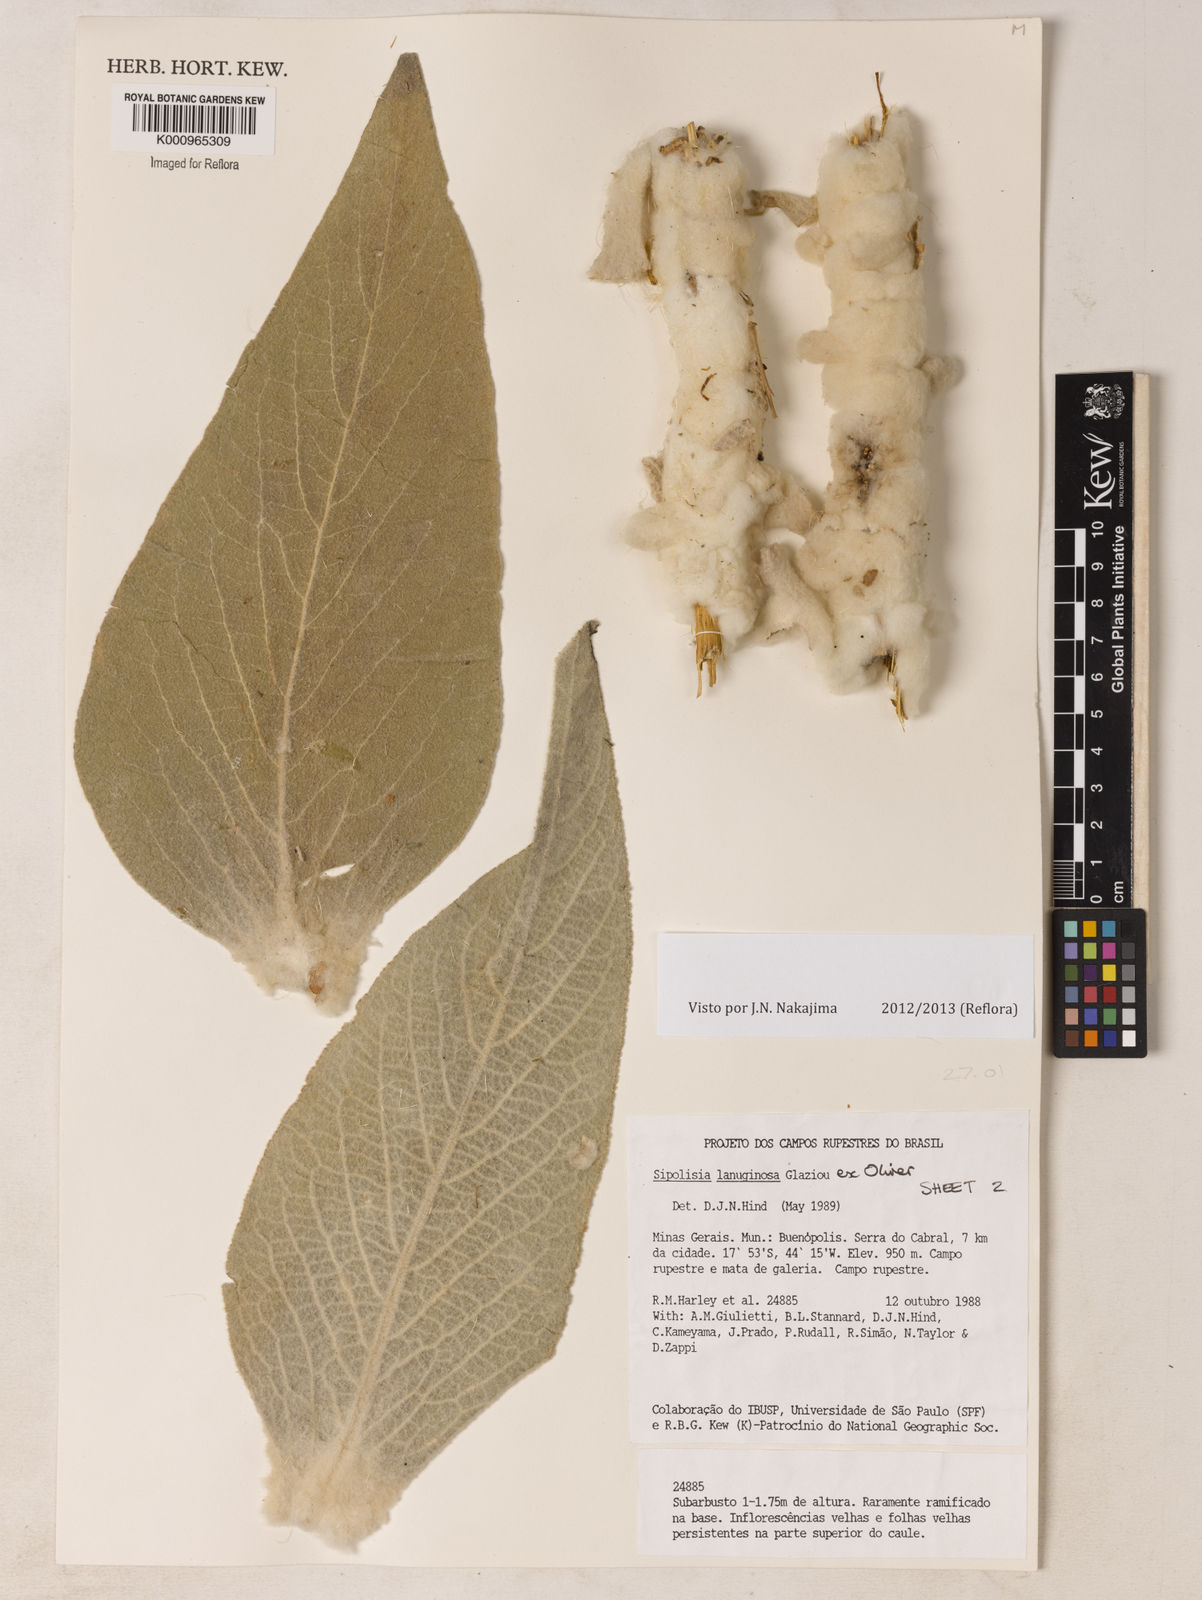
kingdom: Plantae
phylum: Tracheophyta
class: Magnoliopsida
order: Asterales
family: Asteraceae
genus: Heterocoma
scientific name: Heterocoma lanuginosa
